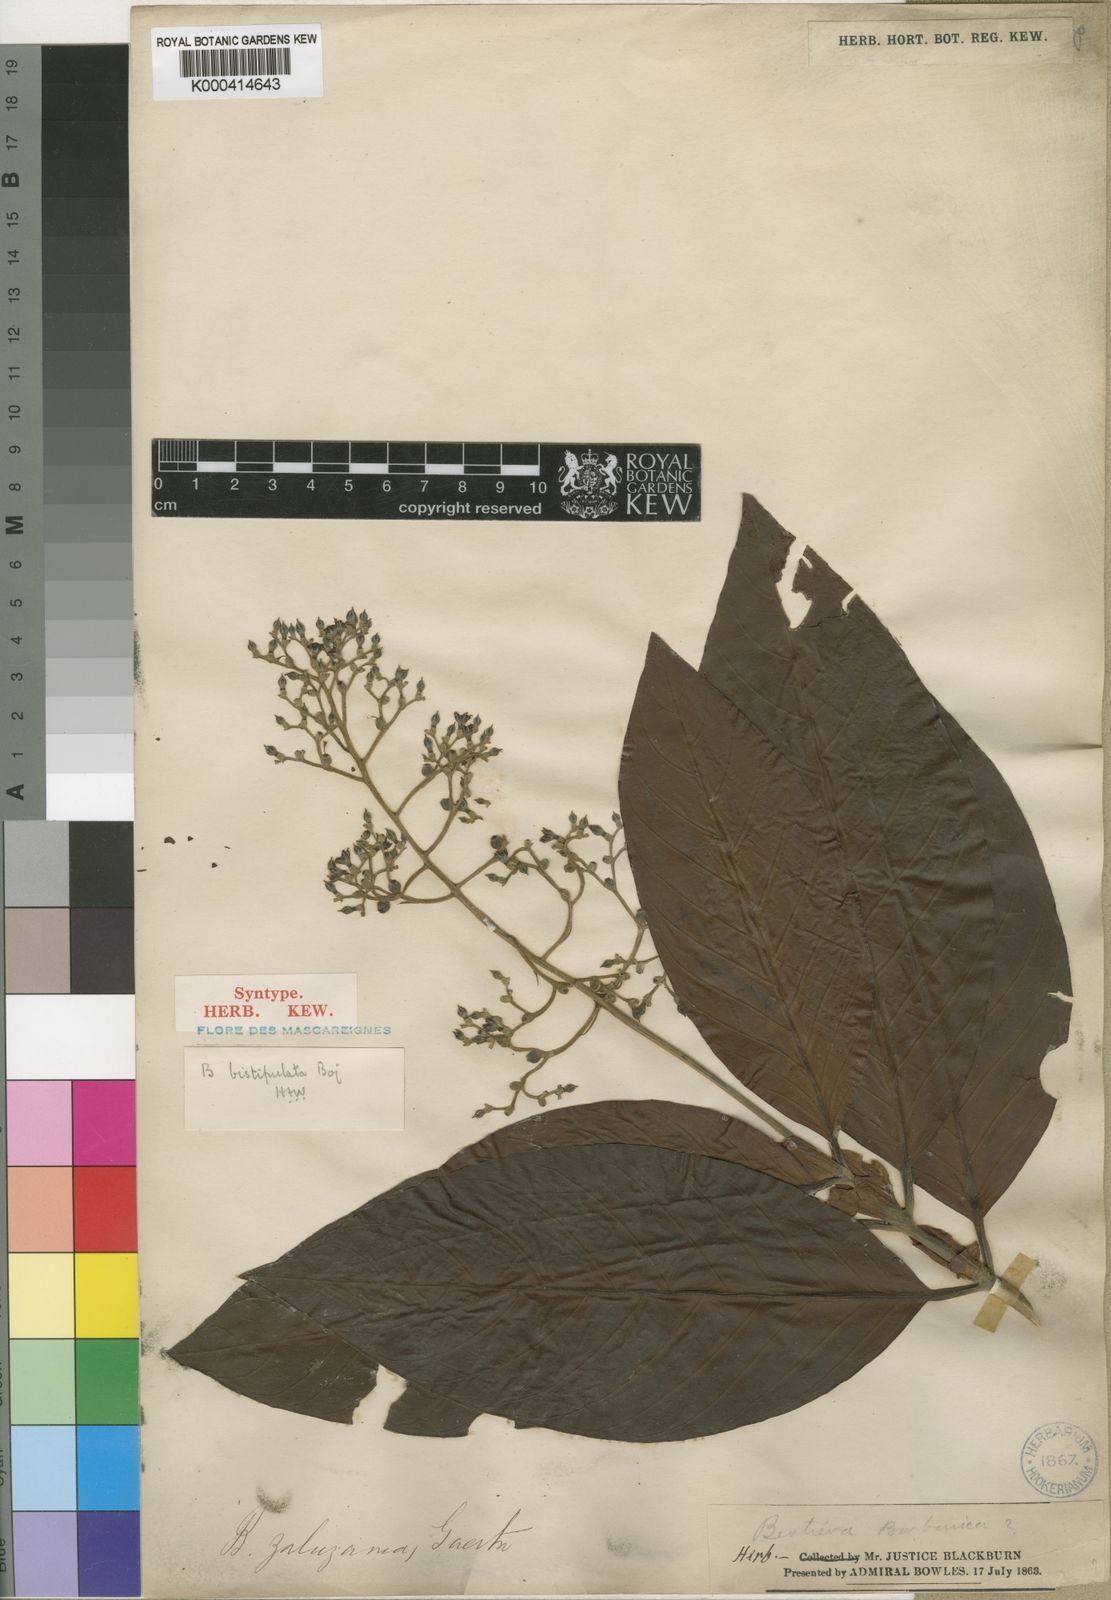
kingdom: Plantae
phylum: Tracheophyta
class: Magnoliopsida
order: Gentianales
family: Rubiaceae
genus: Bertiera
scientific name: Bertiera
